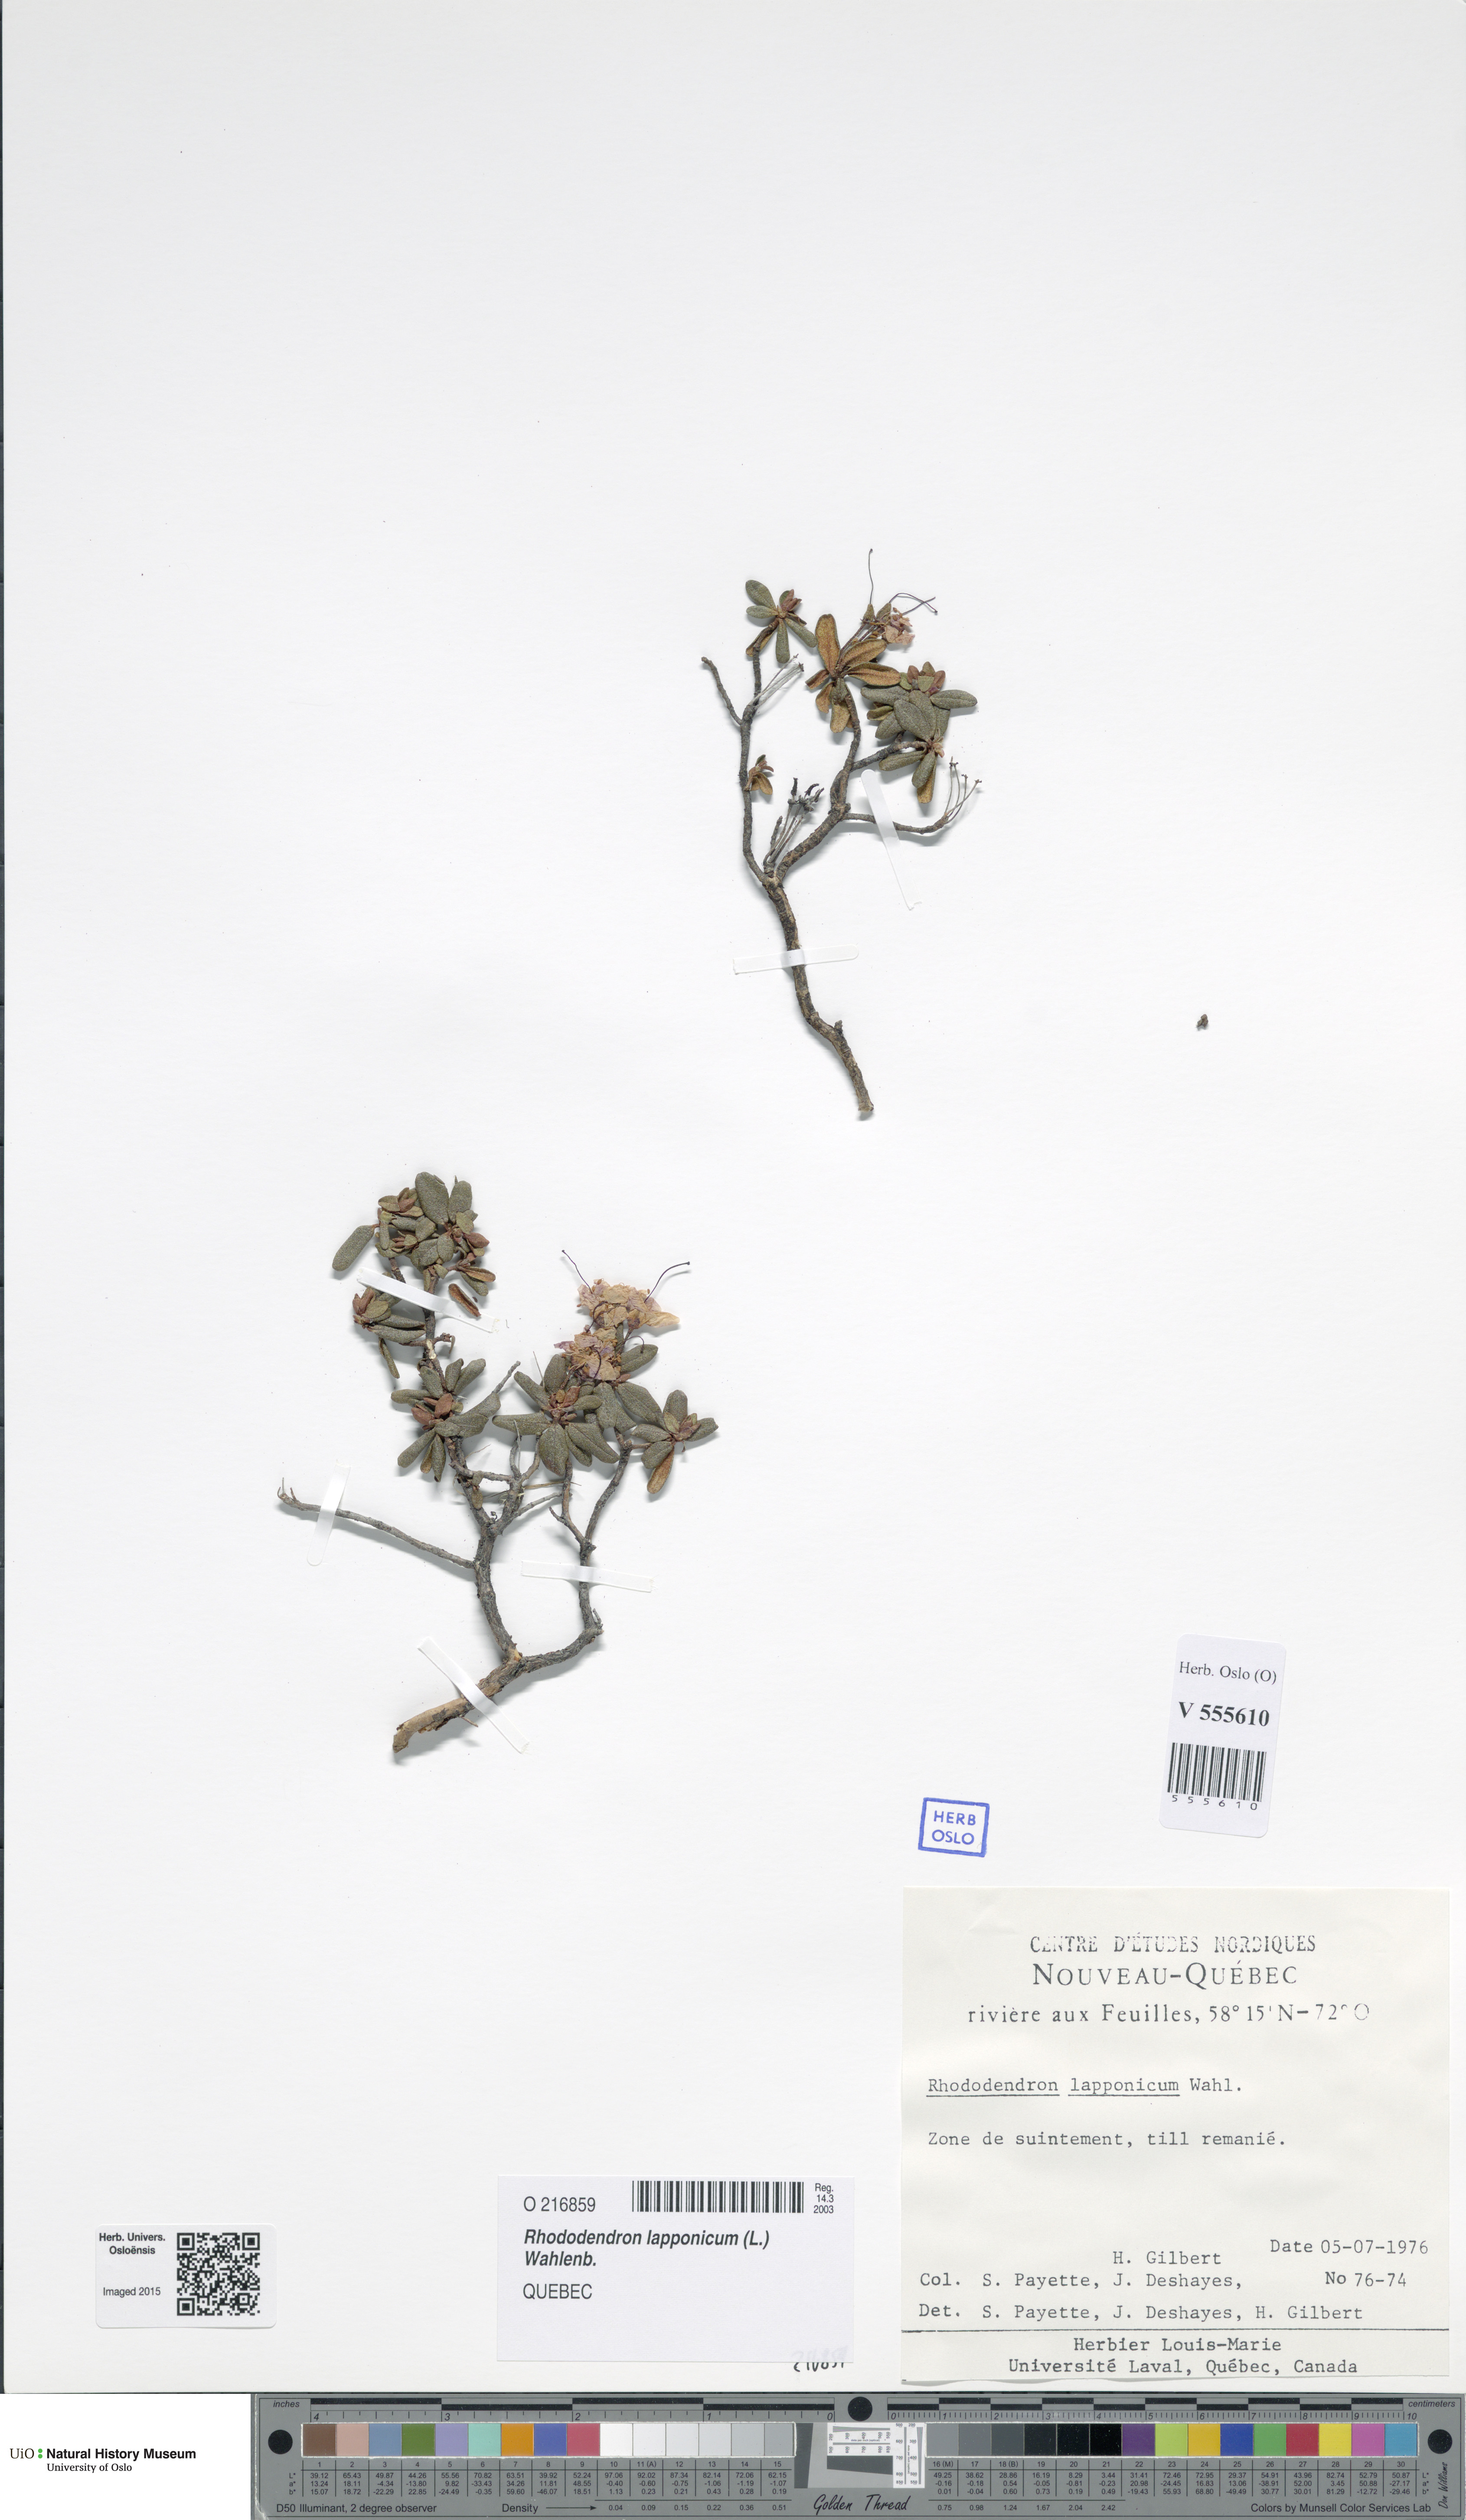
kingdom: Plantae
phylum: Tracheophyta
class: Magnoliopsida
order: Ericales
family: Ericaceae
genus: Rhododendron
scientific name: Rhododendron lapponicum
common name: Lapland rhododendron
